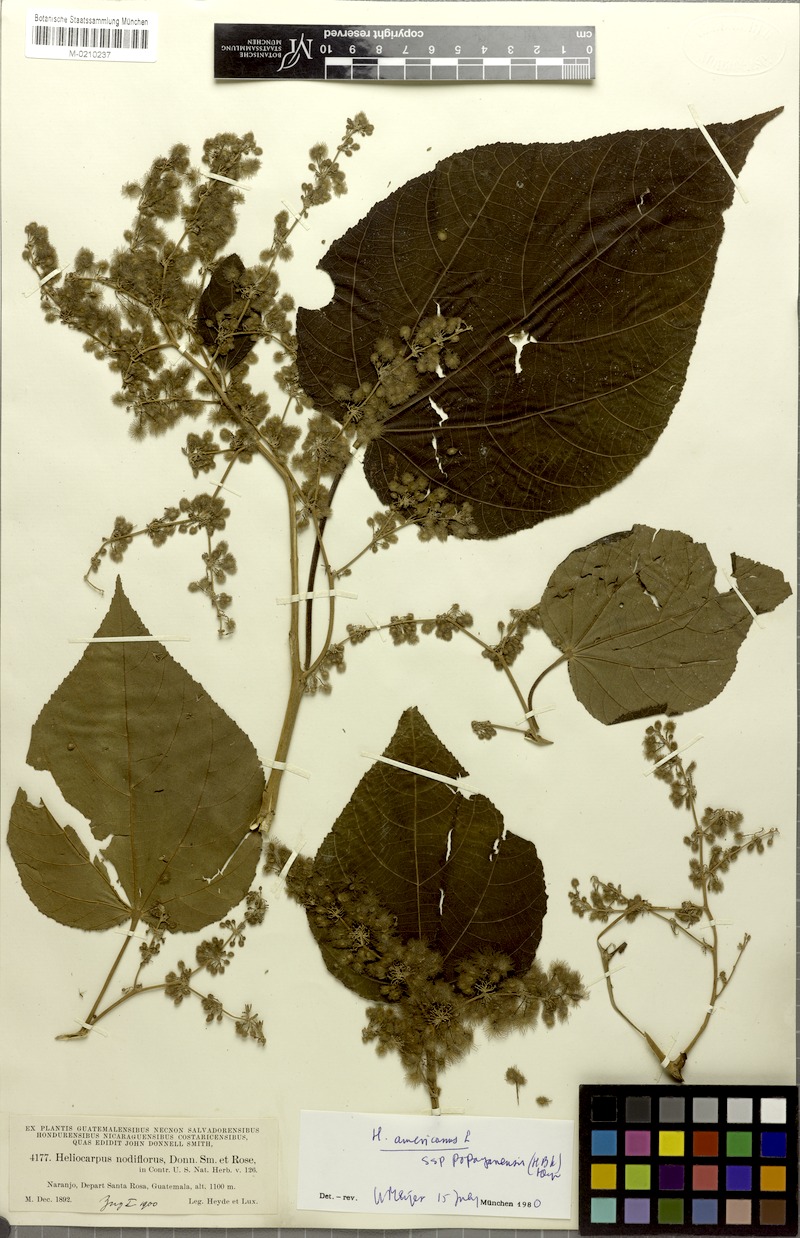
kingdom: Plantae
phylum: Tracheophyta
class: Magnoliopsida
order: Malvales
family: Malvaceae
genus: Heliocarpus
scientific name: Heliocarpus americanus
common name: White moho
